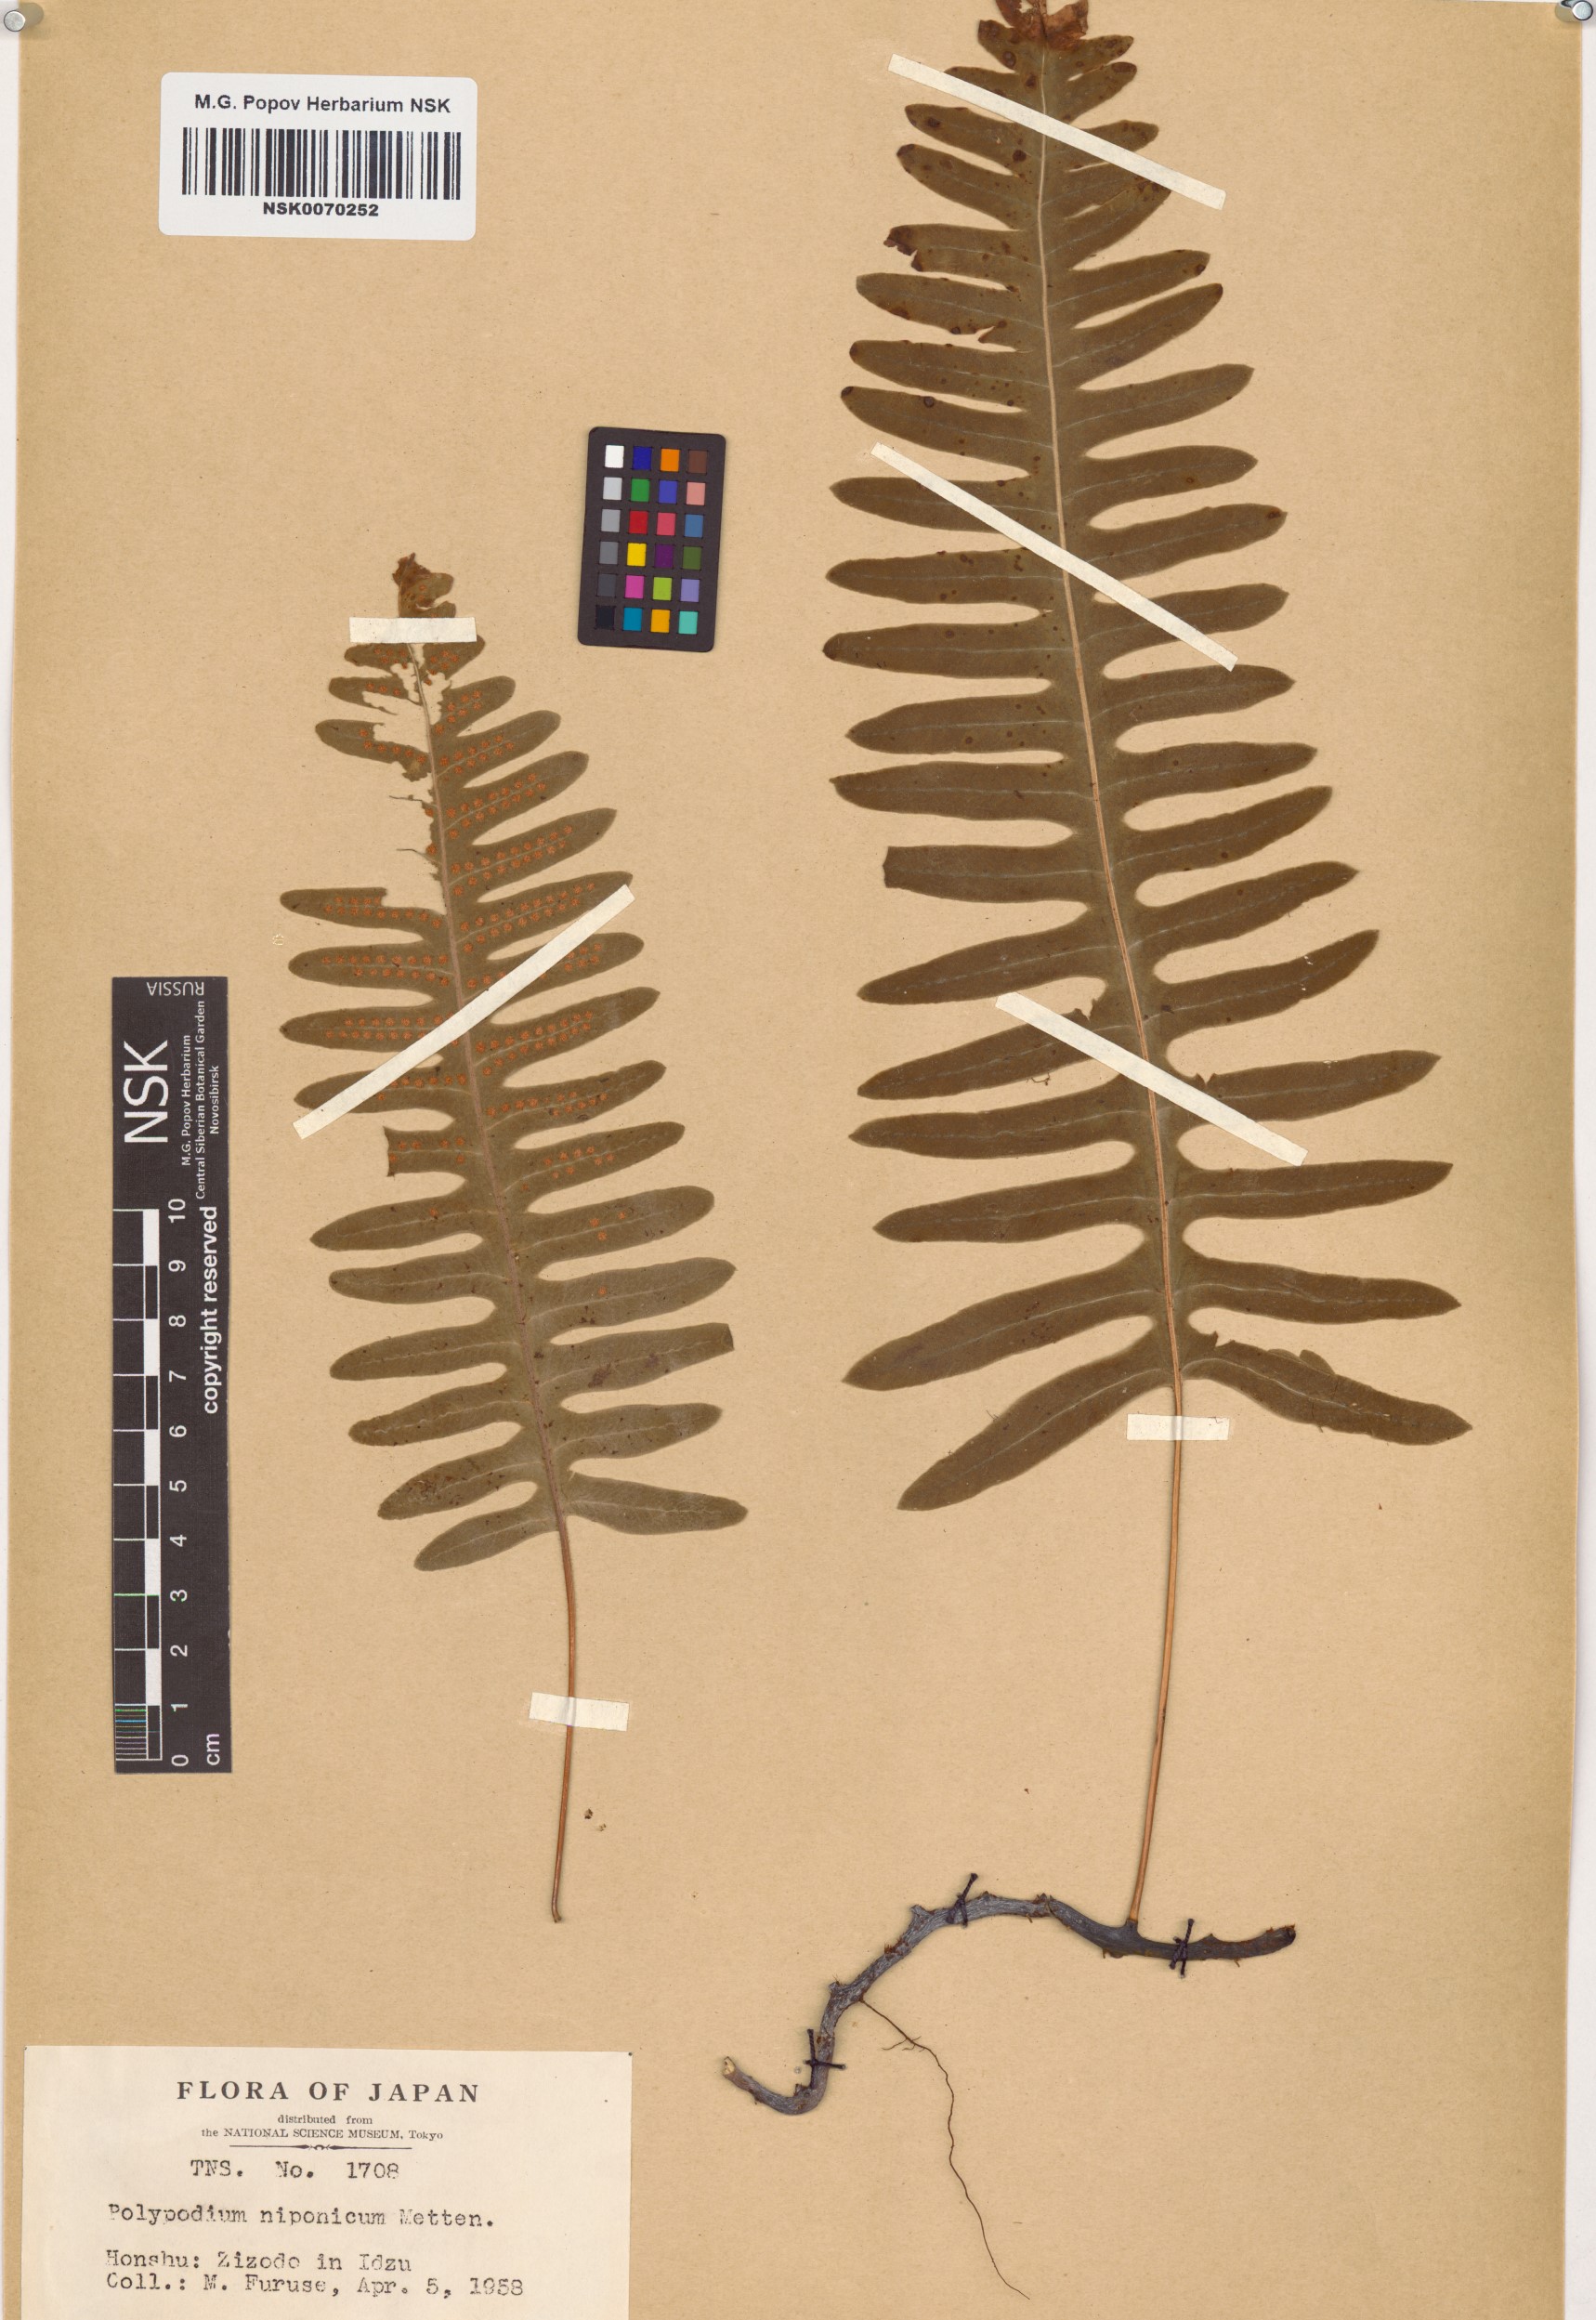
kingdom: Plantae
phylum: Tracheophyta
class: Polypodiopsida
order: Polypodiales
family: Polypodiaceae
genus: Goniophlebium
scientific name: Goniophlebium niponicum
